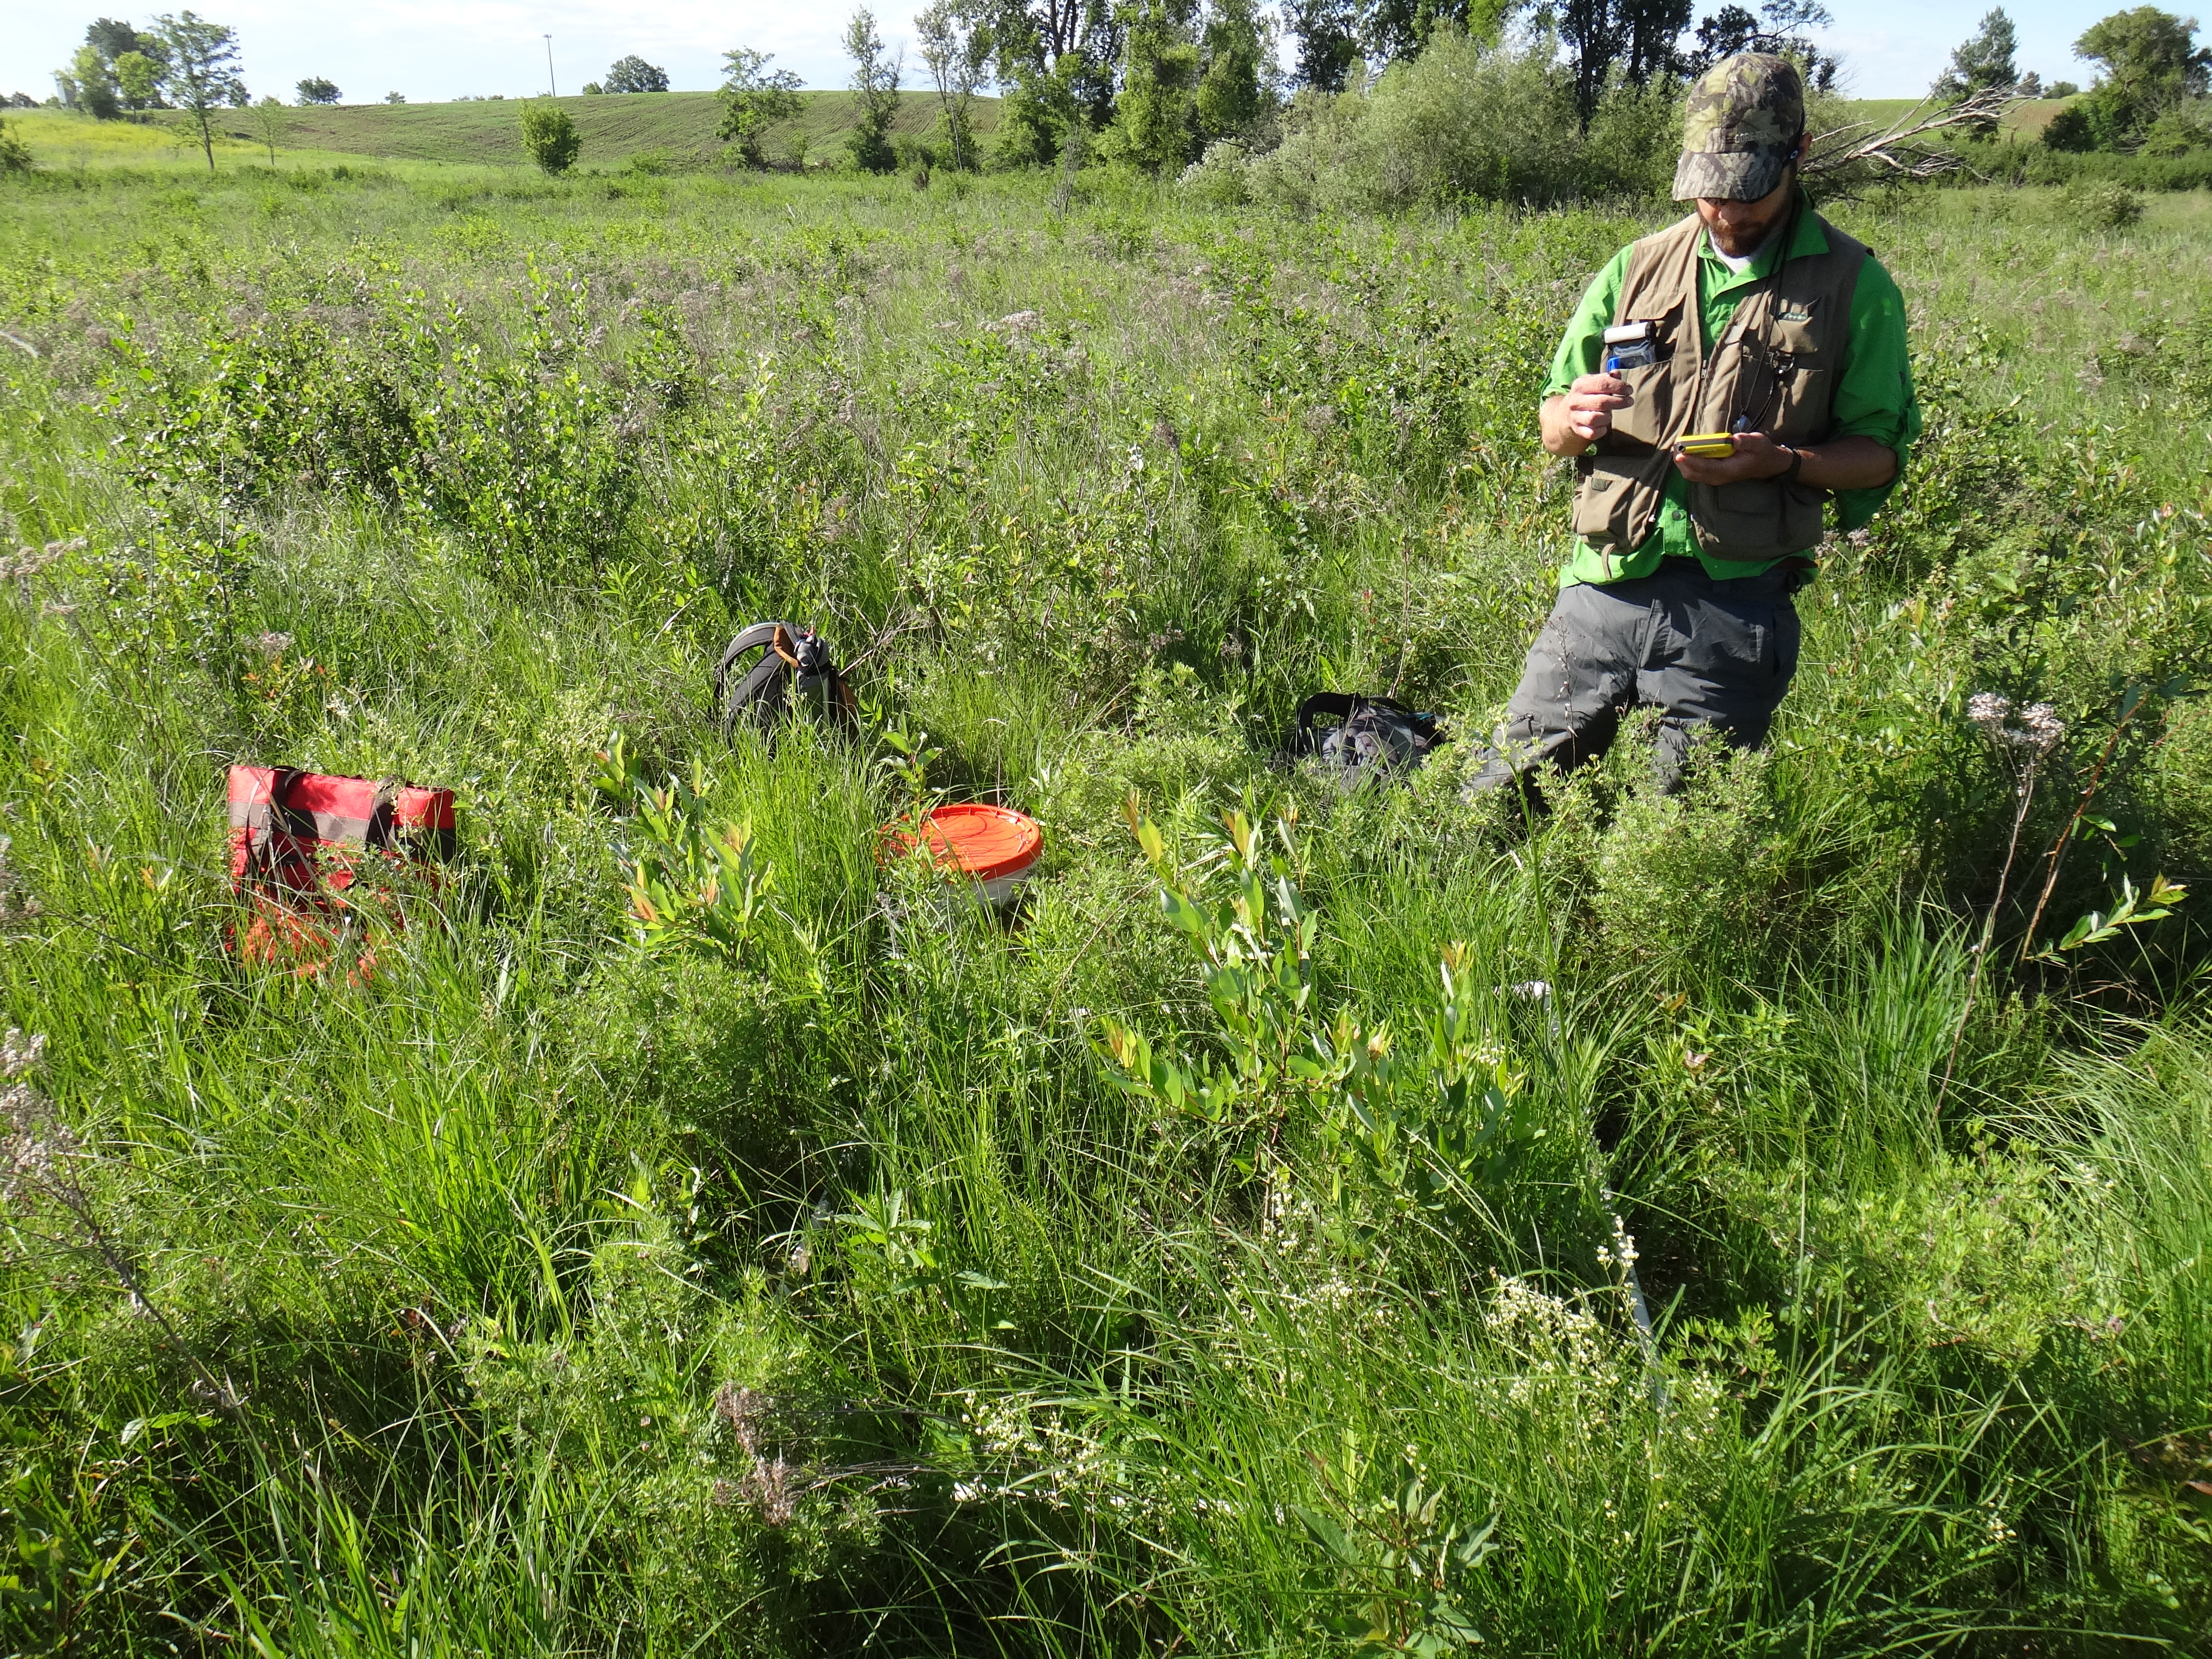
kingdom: Plantae
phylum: Tracheophyta
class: Magnoliopsida
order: Celastrales
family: Parnassiaceae
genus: Parnassia
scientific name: Parnassia glauca
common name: American grass-of-parnassus
